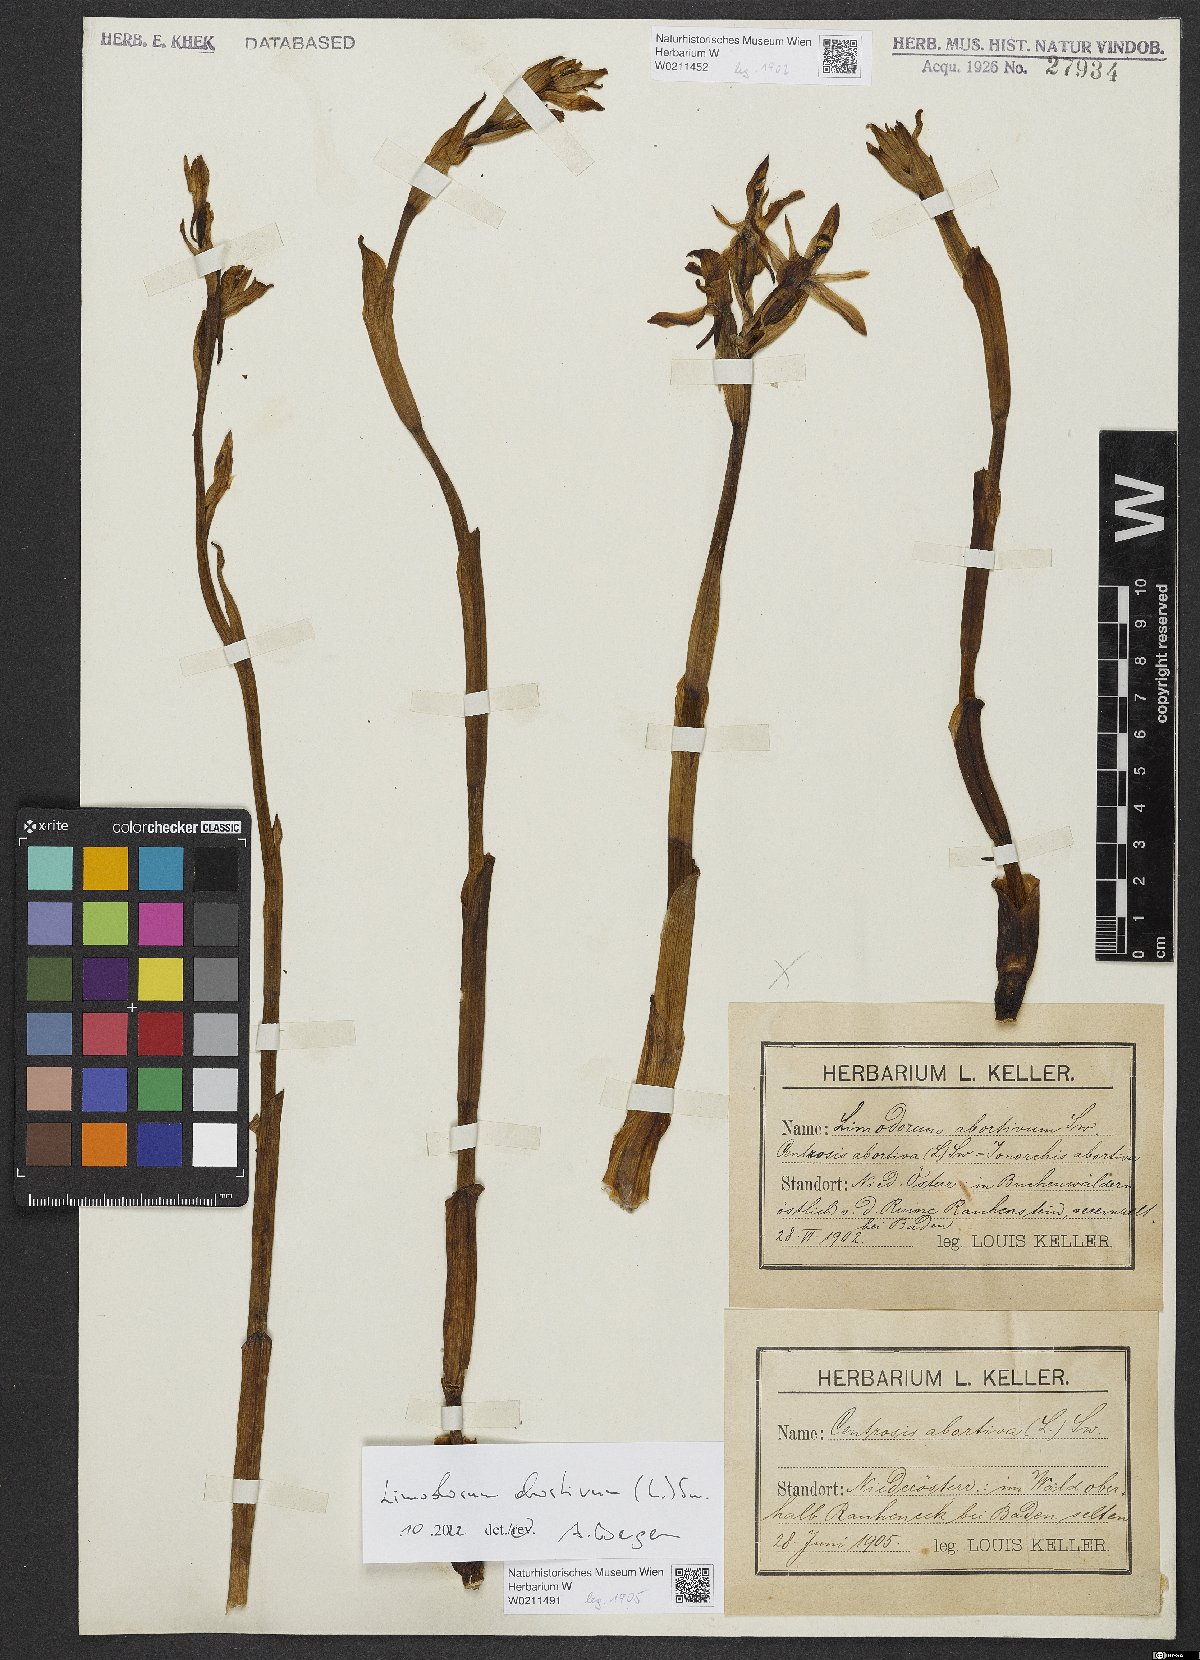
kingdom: Plantae
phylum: Tracheophyta
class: Liliopsida
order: Asparagales
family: Orchidaceae
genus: Limodorum
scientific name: Limodorum abortivum
